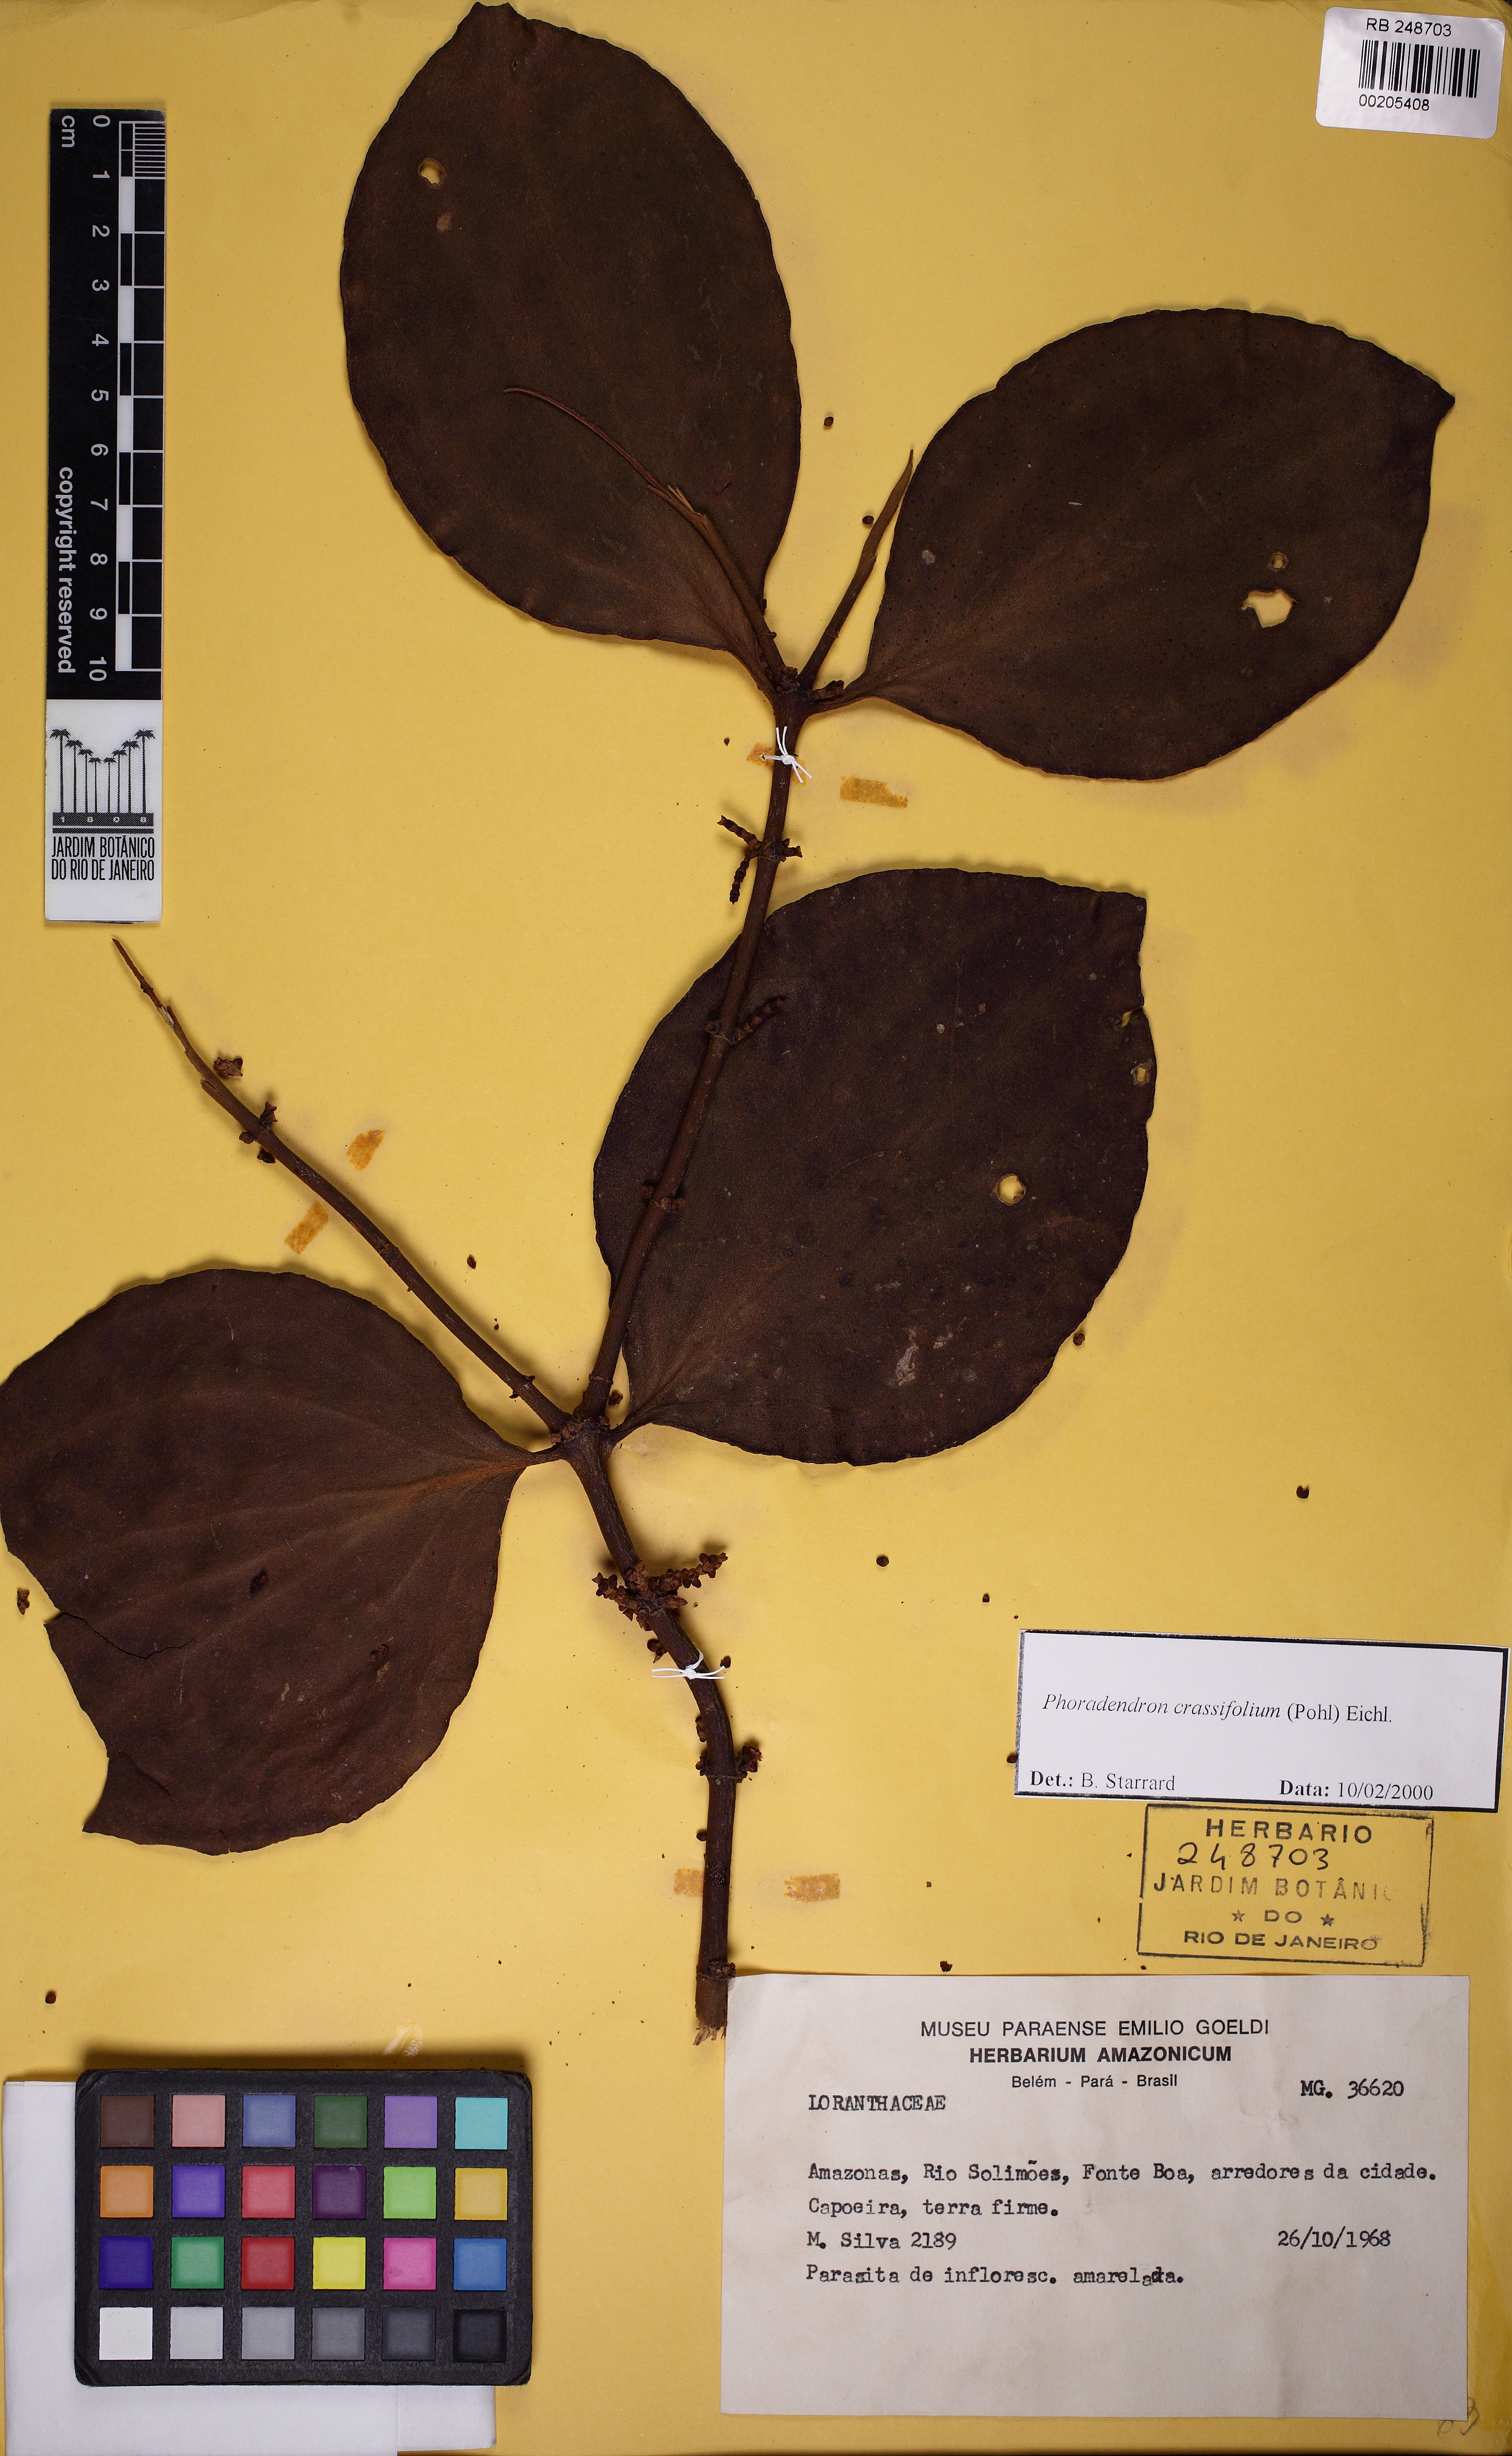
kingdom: Plantae
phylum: Tracheophyta
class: Magnoliopsida
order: Santalales
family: Viscaceae
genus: Phoradendron
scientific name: Phoradendron
